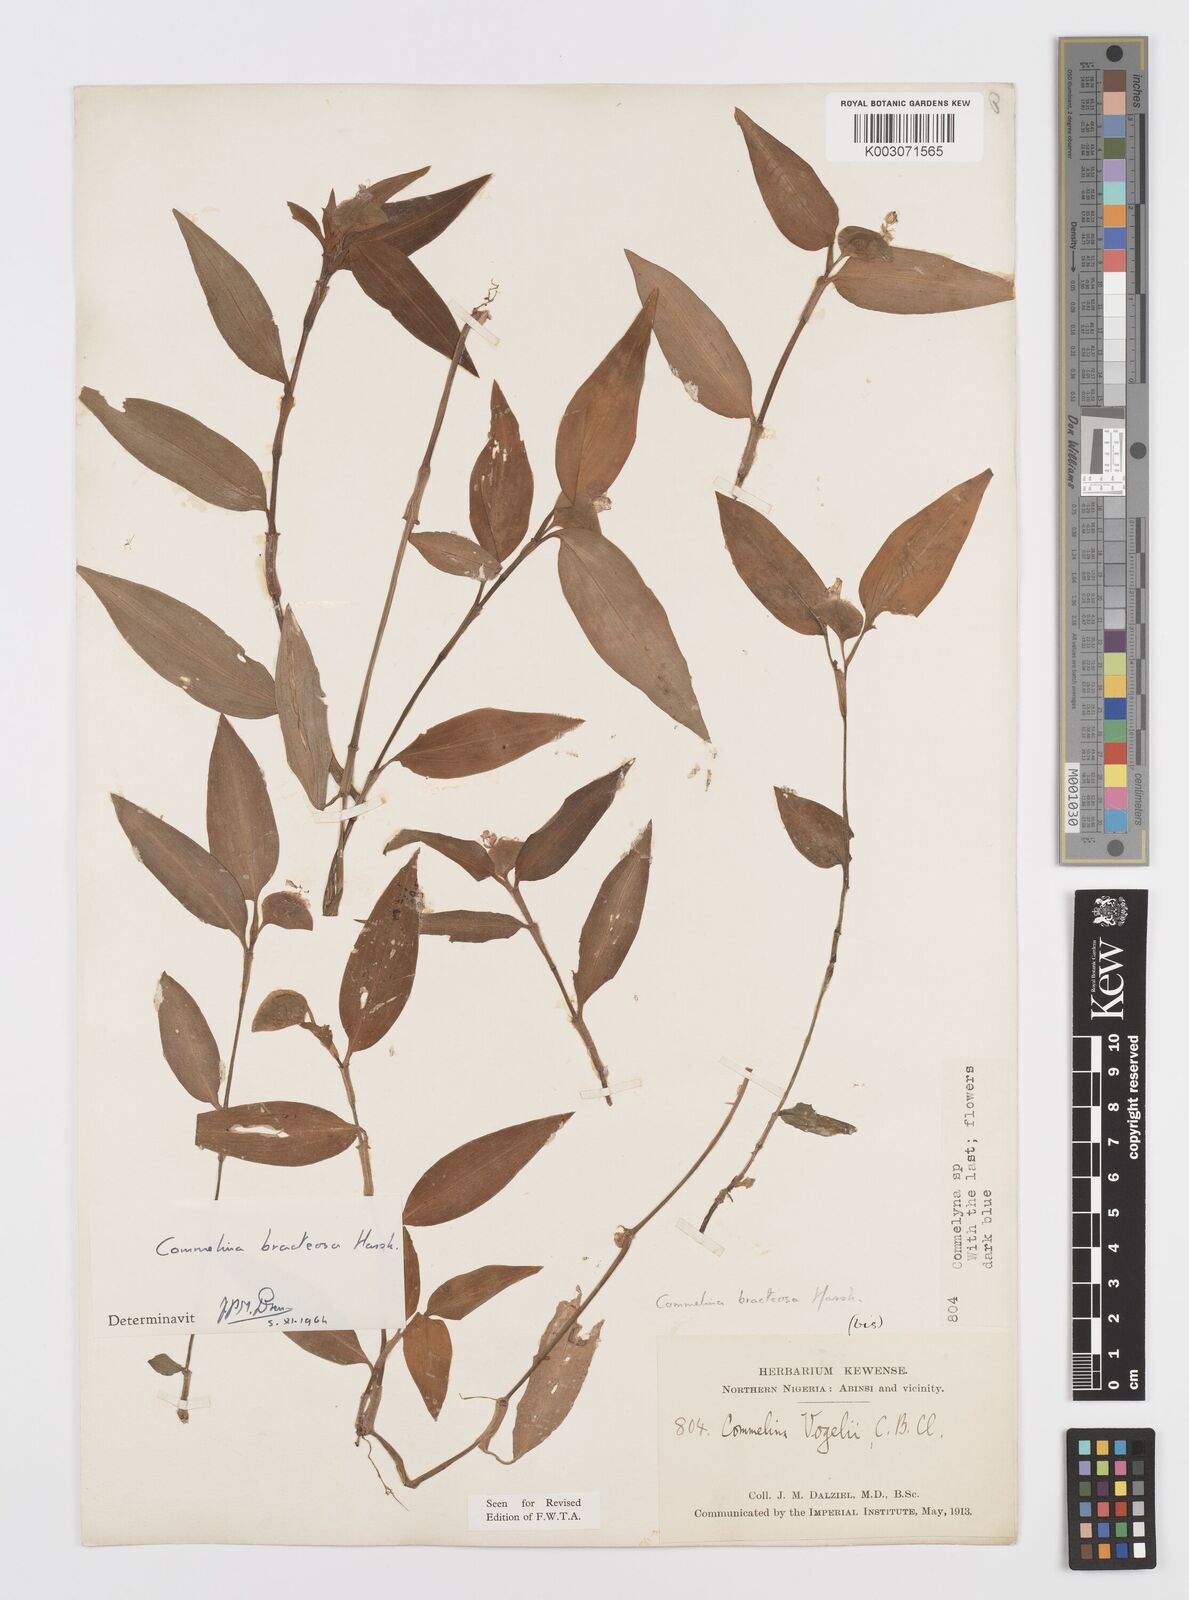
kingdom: Plantae
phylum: Tracheophyta
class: Liliopsida
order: Commelinales
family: Commelinaceae
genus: Commelina
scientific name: Commelina bracteosa
